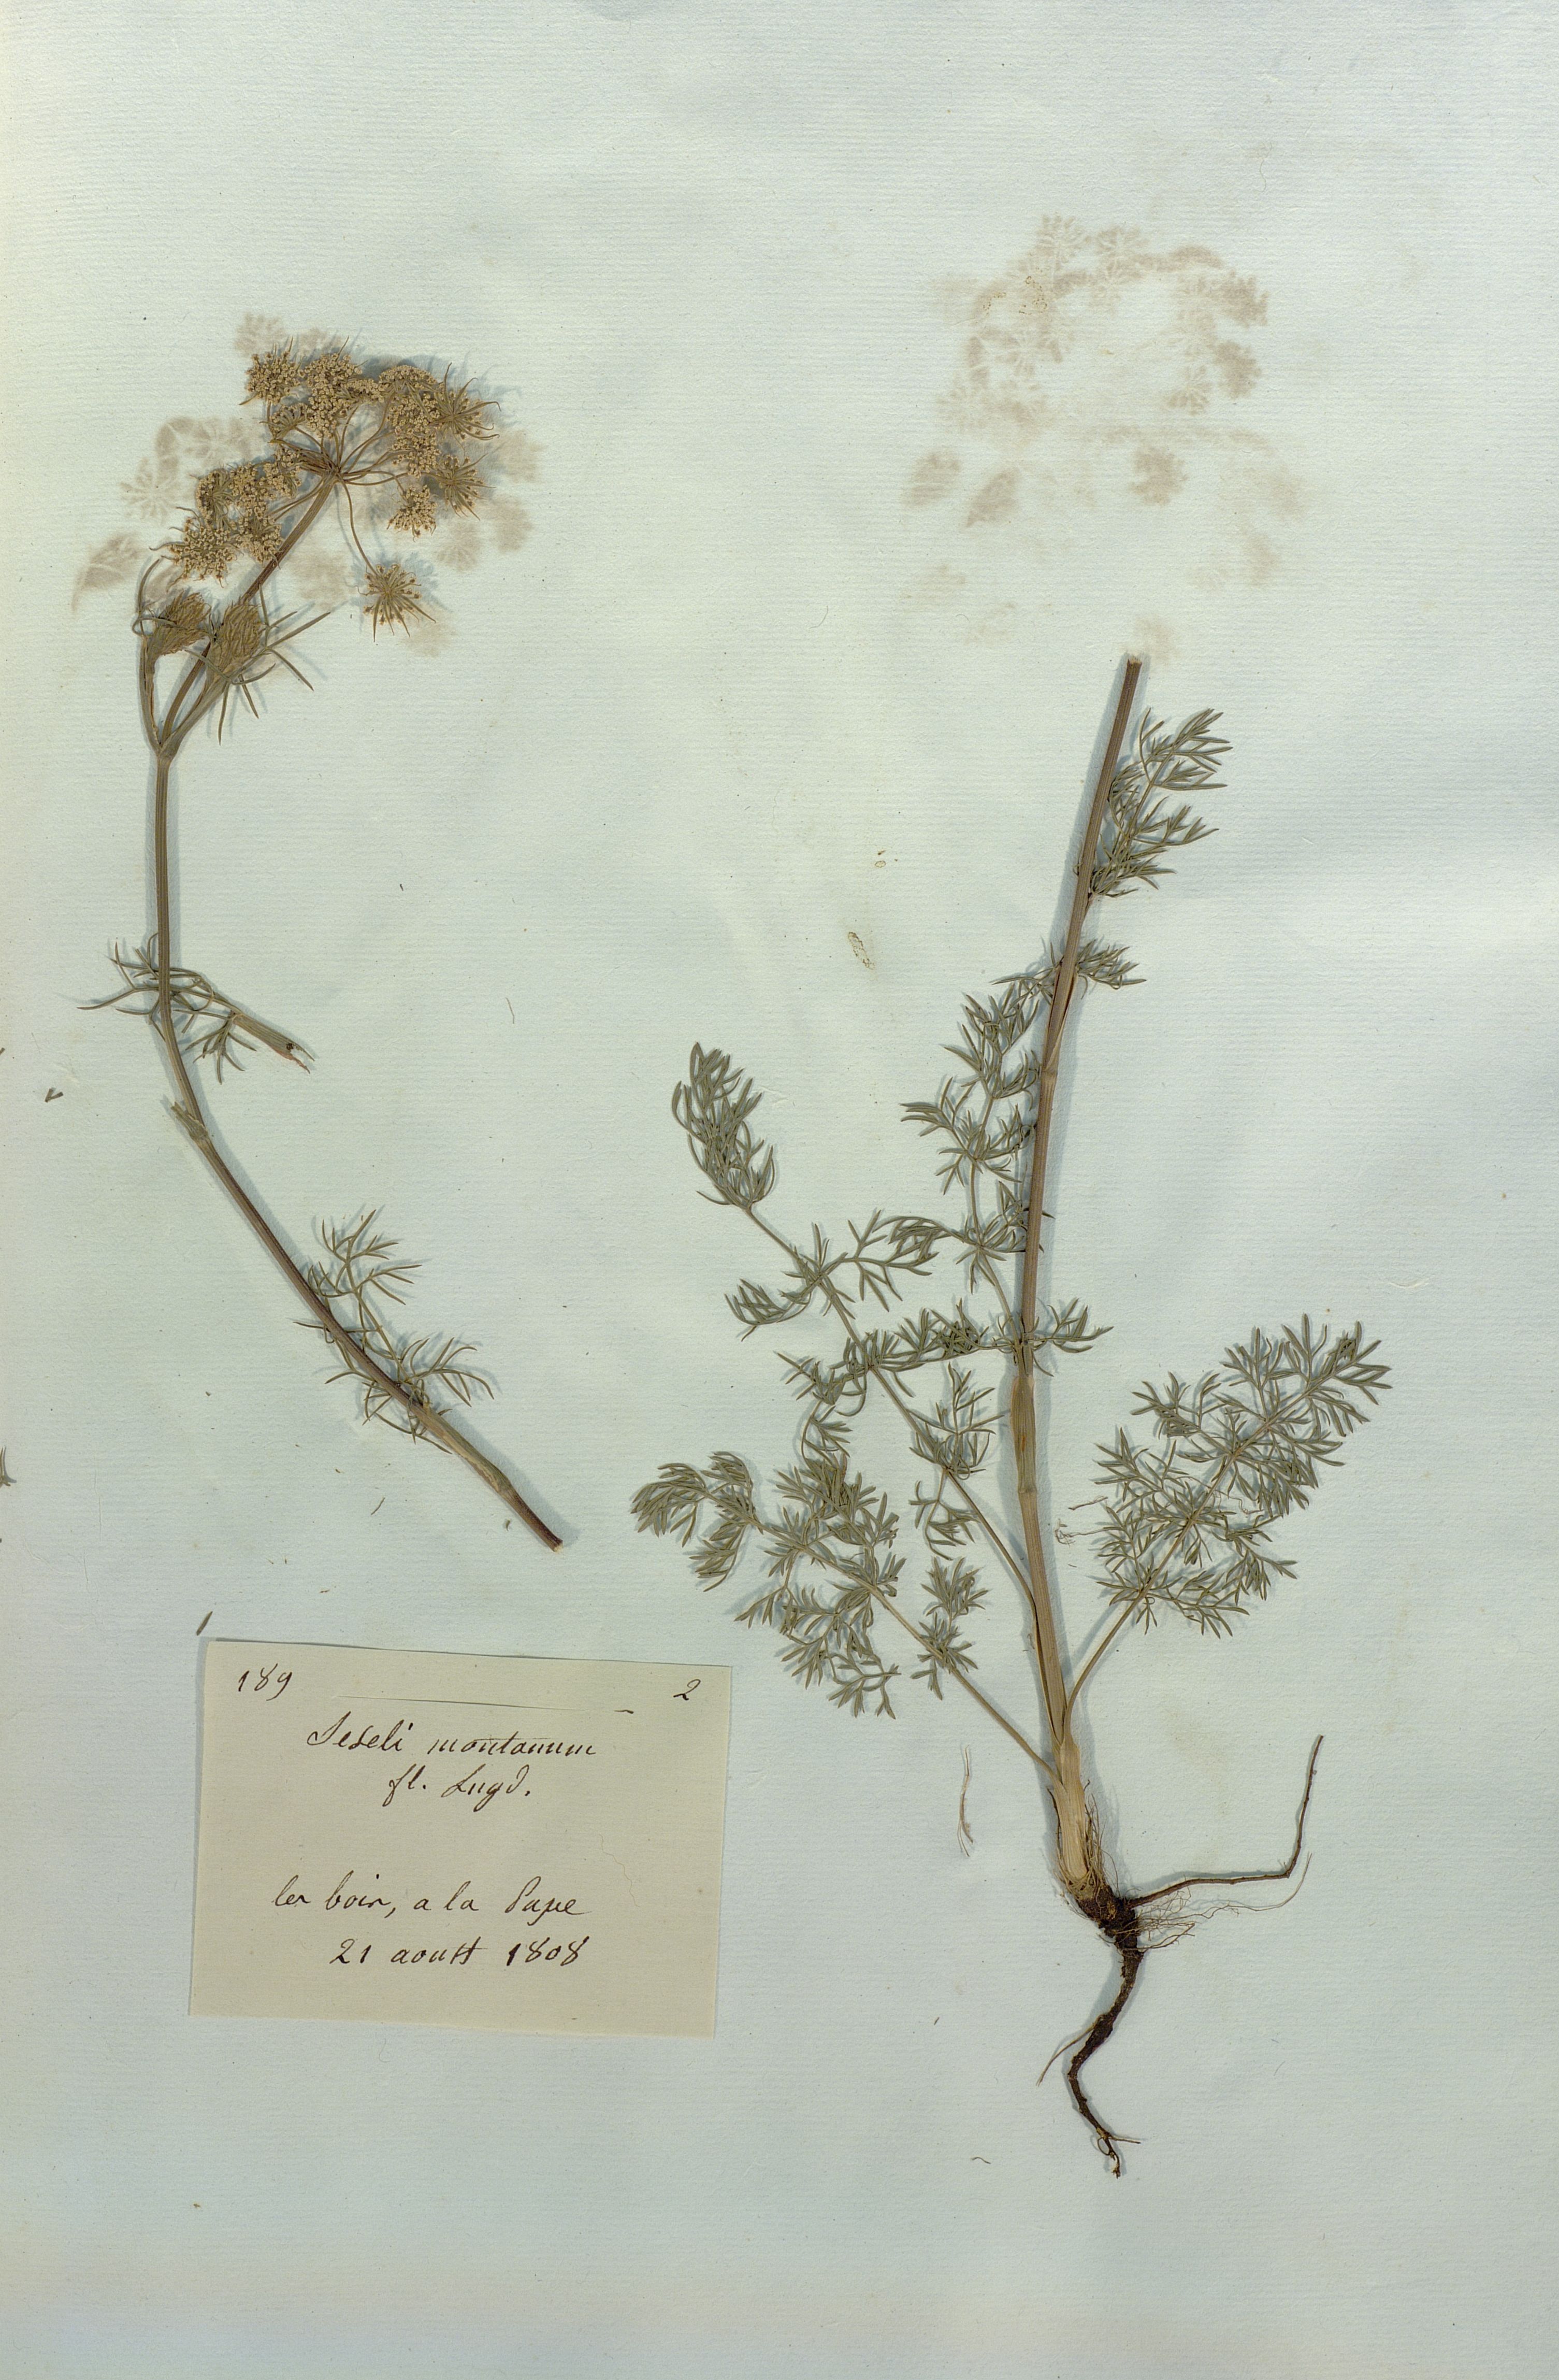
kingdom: Plantae
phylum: Tracheophyta
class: Magnoliopsida
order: Apiales
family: Apiaceae
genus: Seseli
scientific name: Seseli montanum
